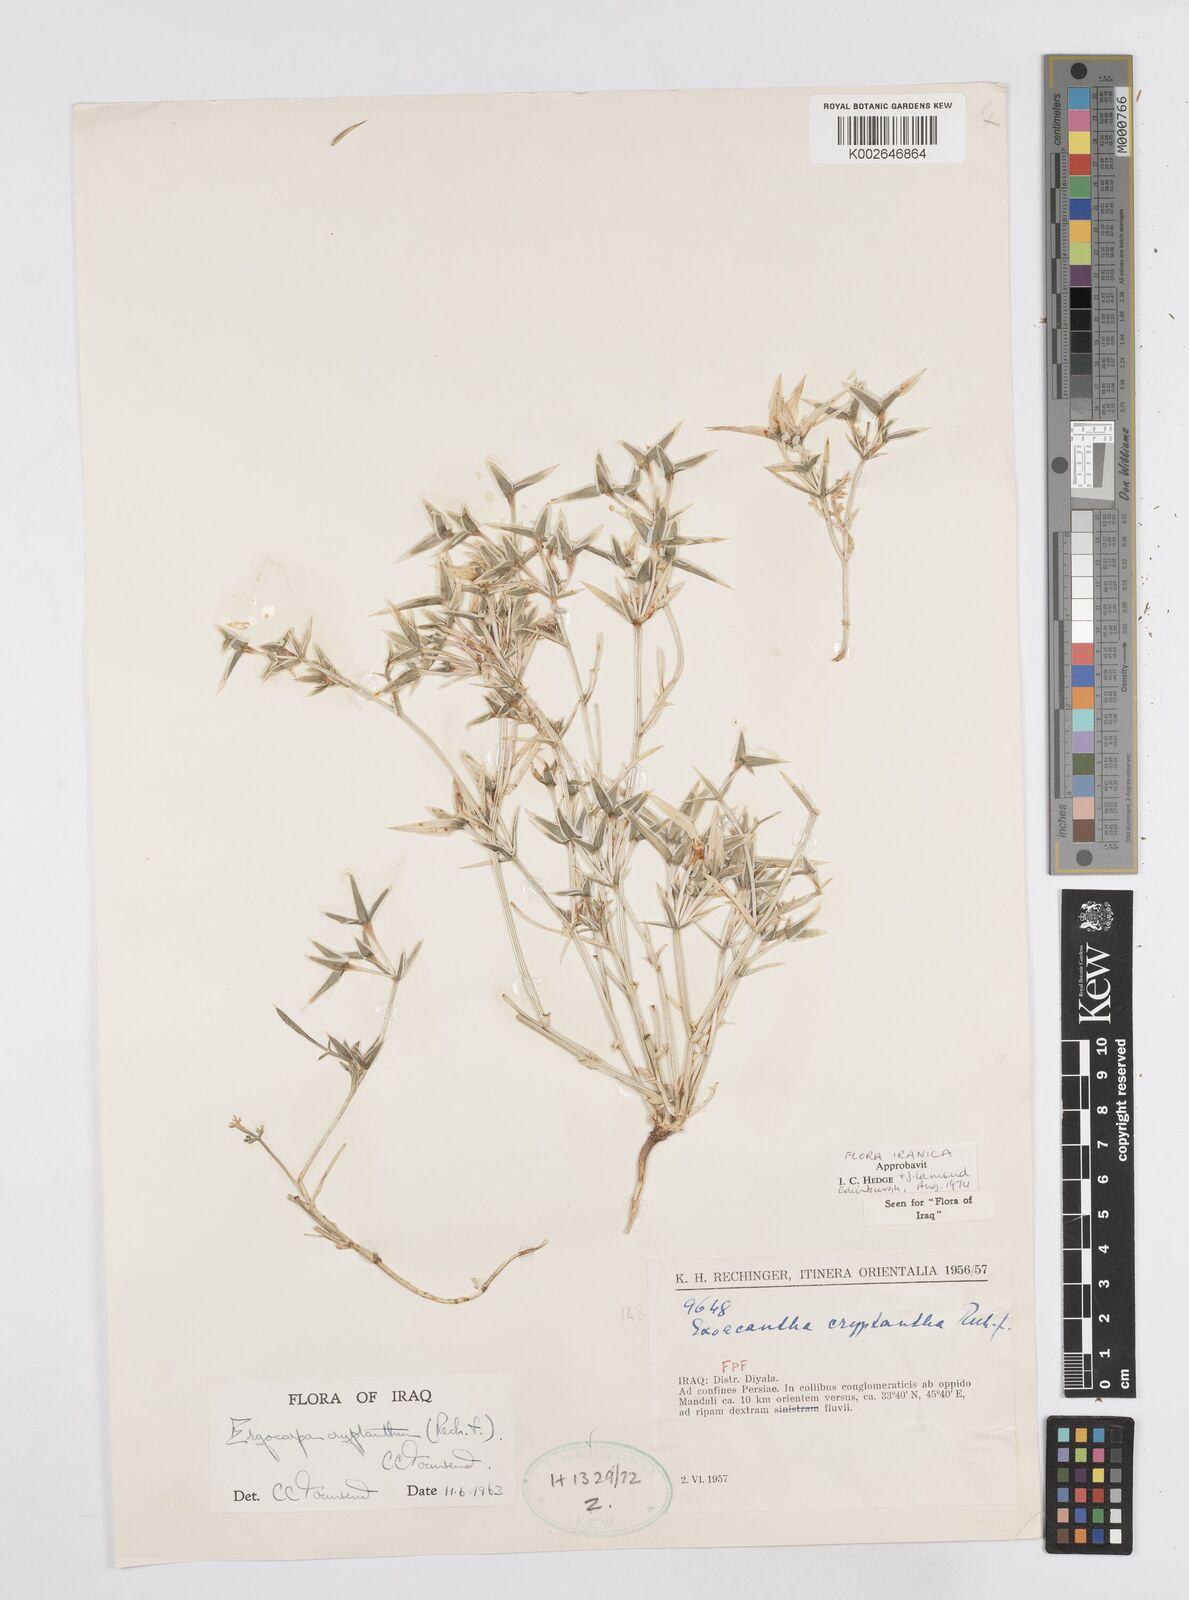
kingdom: Plantae
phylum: Tracheophyta
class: Magnoliopsida
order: Apiales
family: Apiaceae
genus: Ergocarpon
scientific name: Ergocarpon cryptanthum
